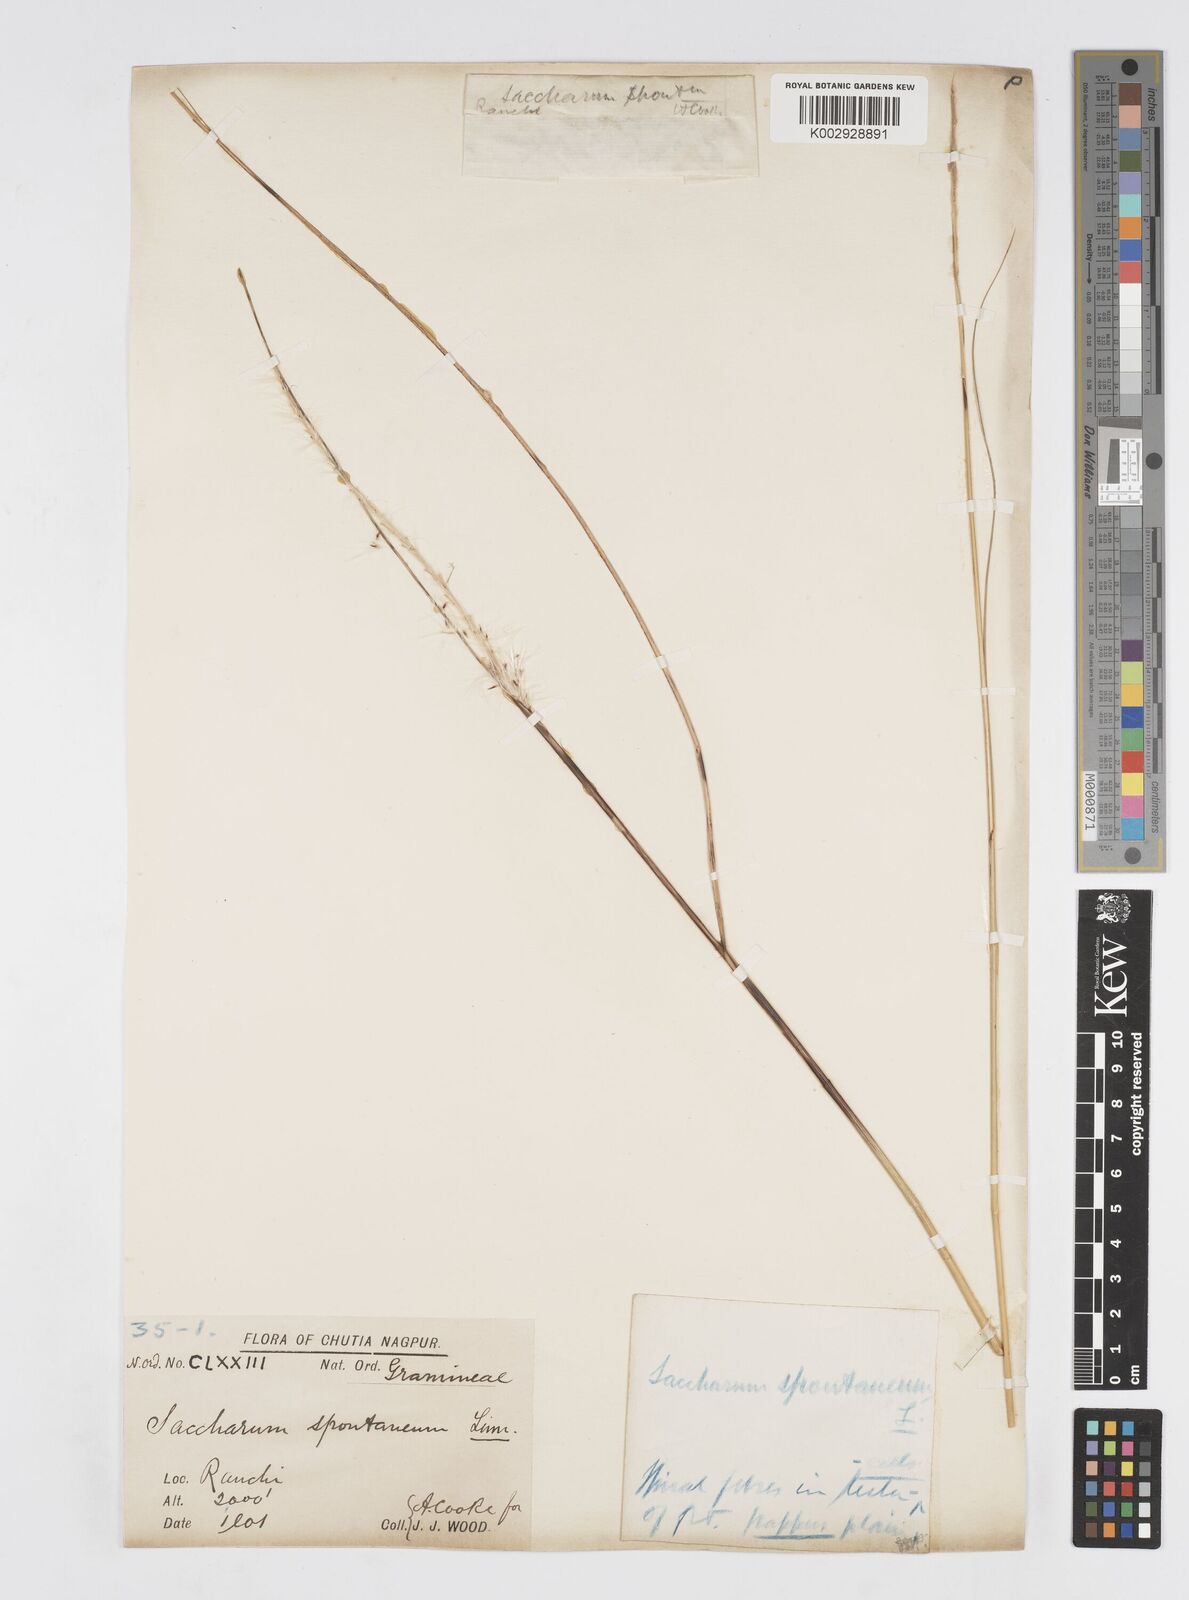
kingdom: Plantae
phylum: Tracheophyta
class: Liliopsida
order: Poales
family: Poaceae
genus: Saccharum
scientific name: Saccharum spontaneum
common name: Wild sugarcane
